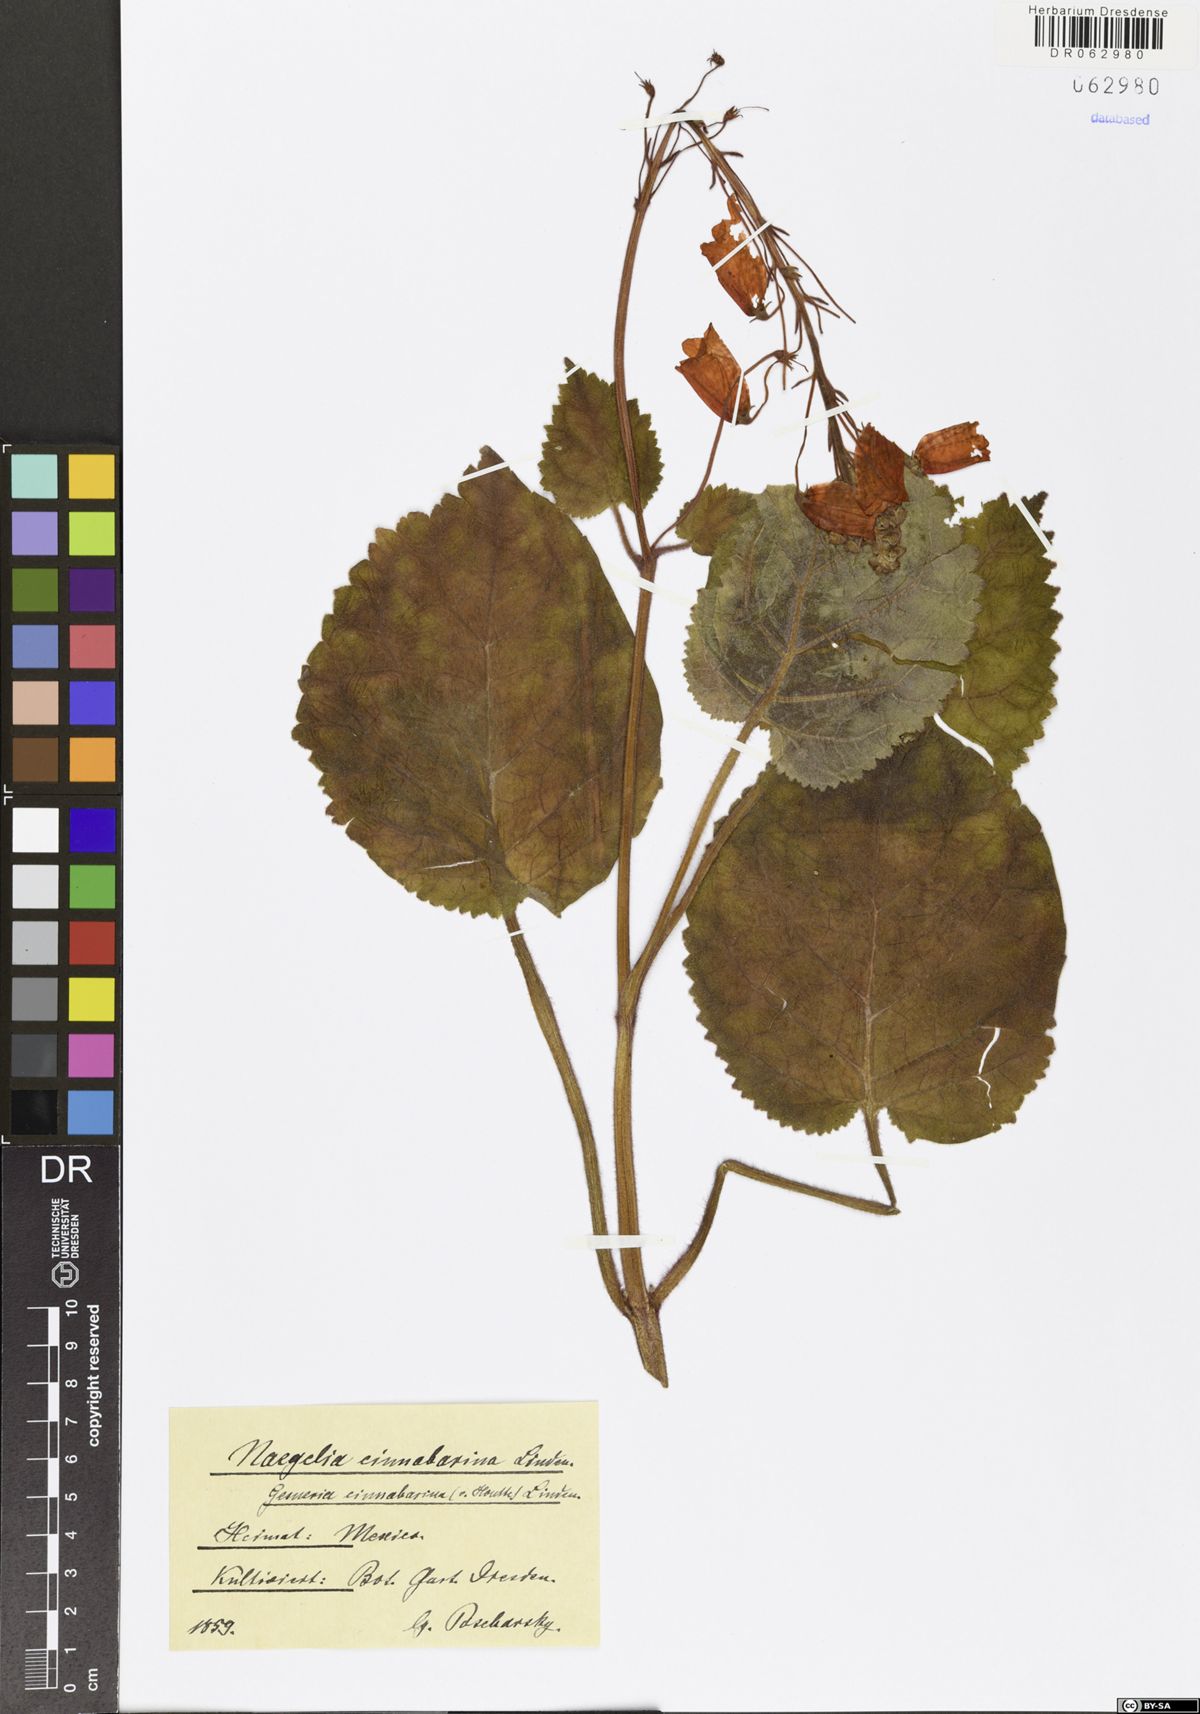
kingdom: Plantae
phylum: Tracheophyta
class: Magnoliopsida
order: Lamiales
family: Gesneriaceae
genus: Smithiantha
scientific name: Smithiantha cinnabarina
